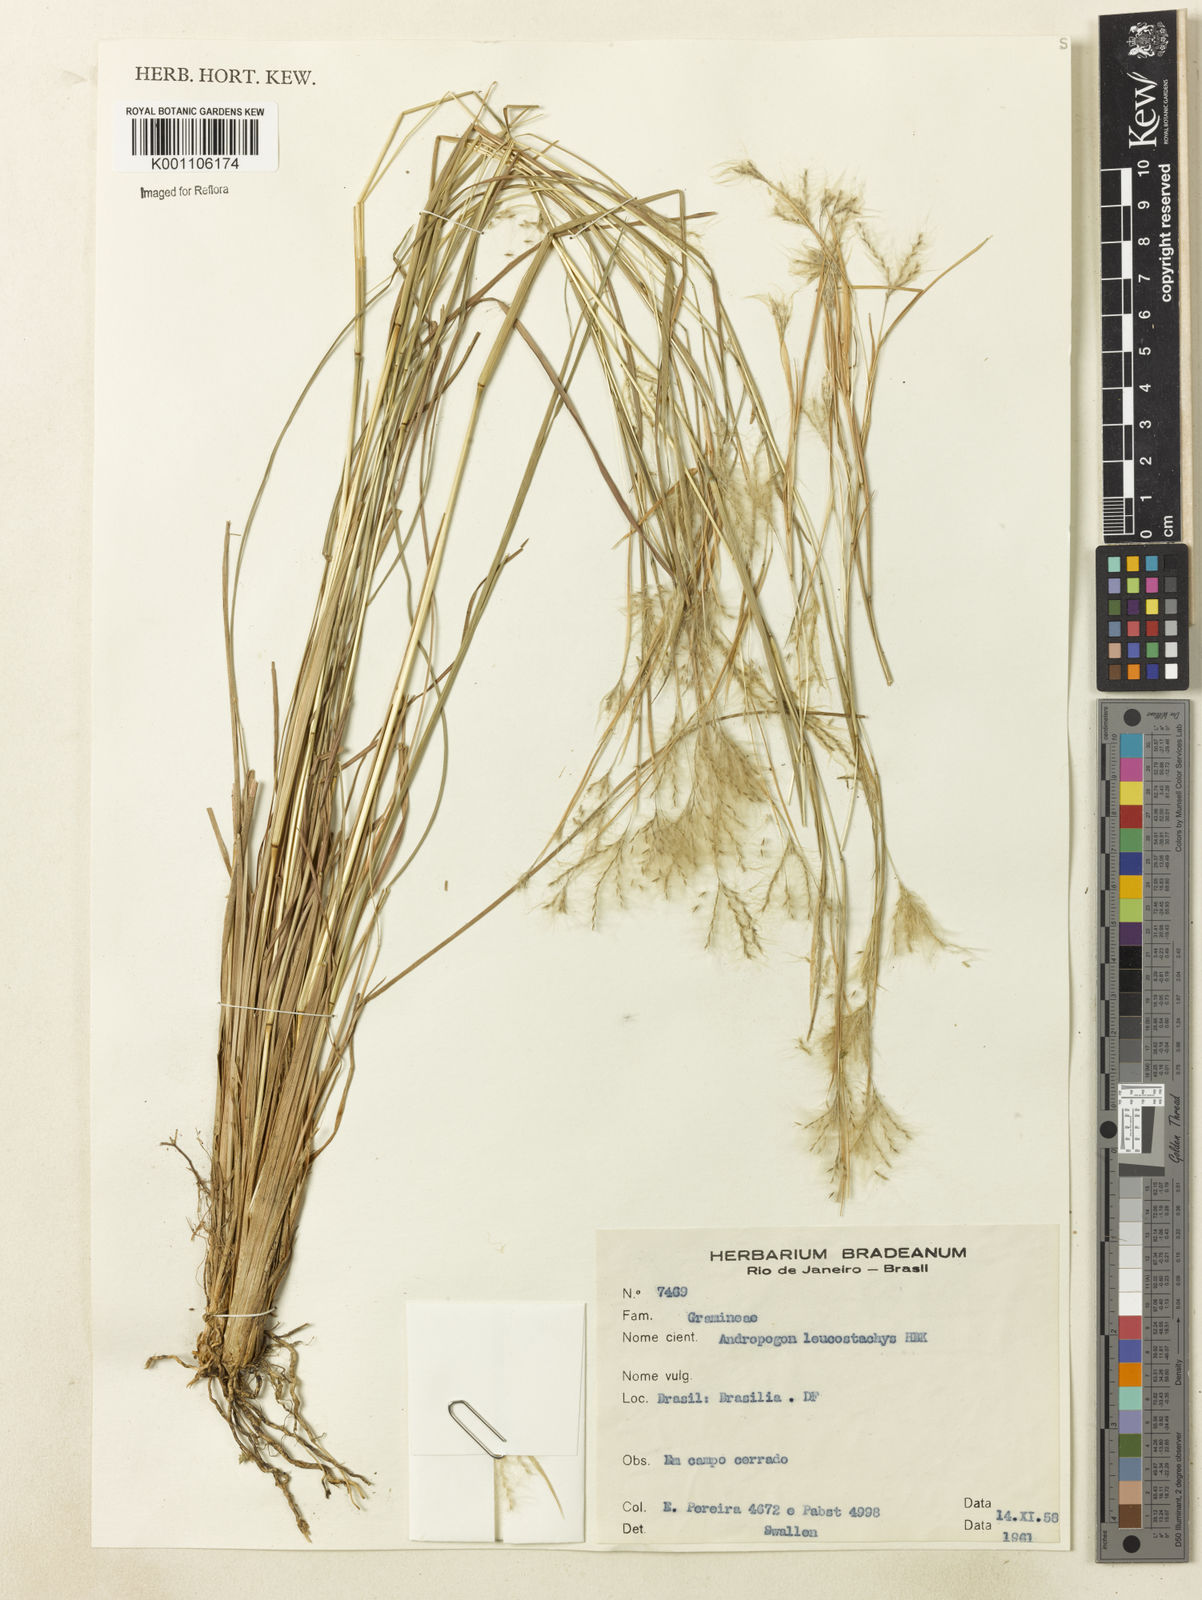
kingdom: Plantae
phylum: Tracheophyta
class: Liliopsida
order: Poales
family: Poaceae
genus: Andropogon
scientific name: Andropogon leucostachyus
